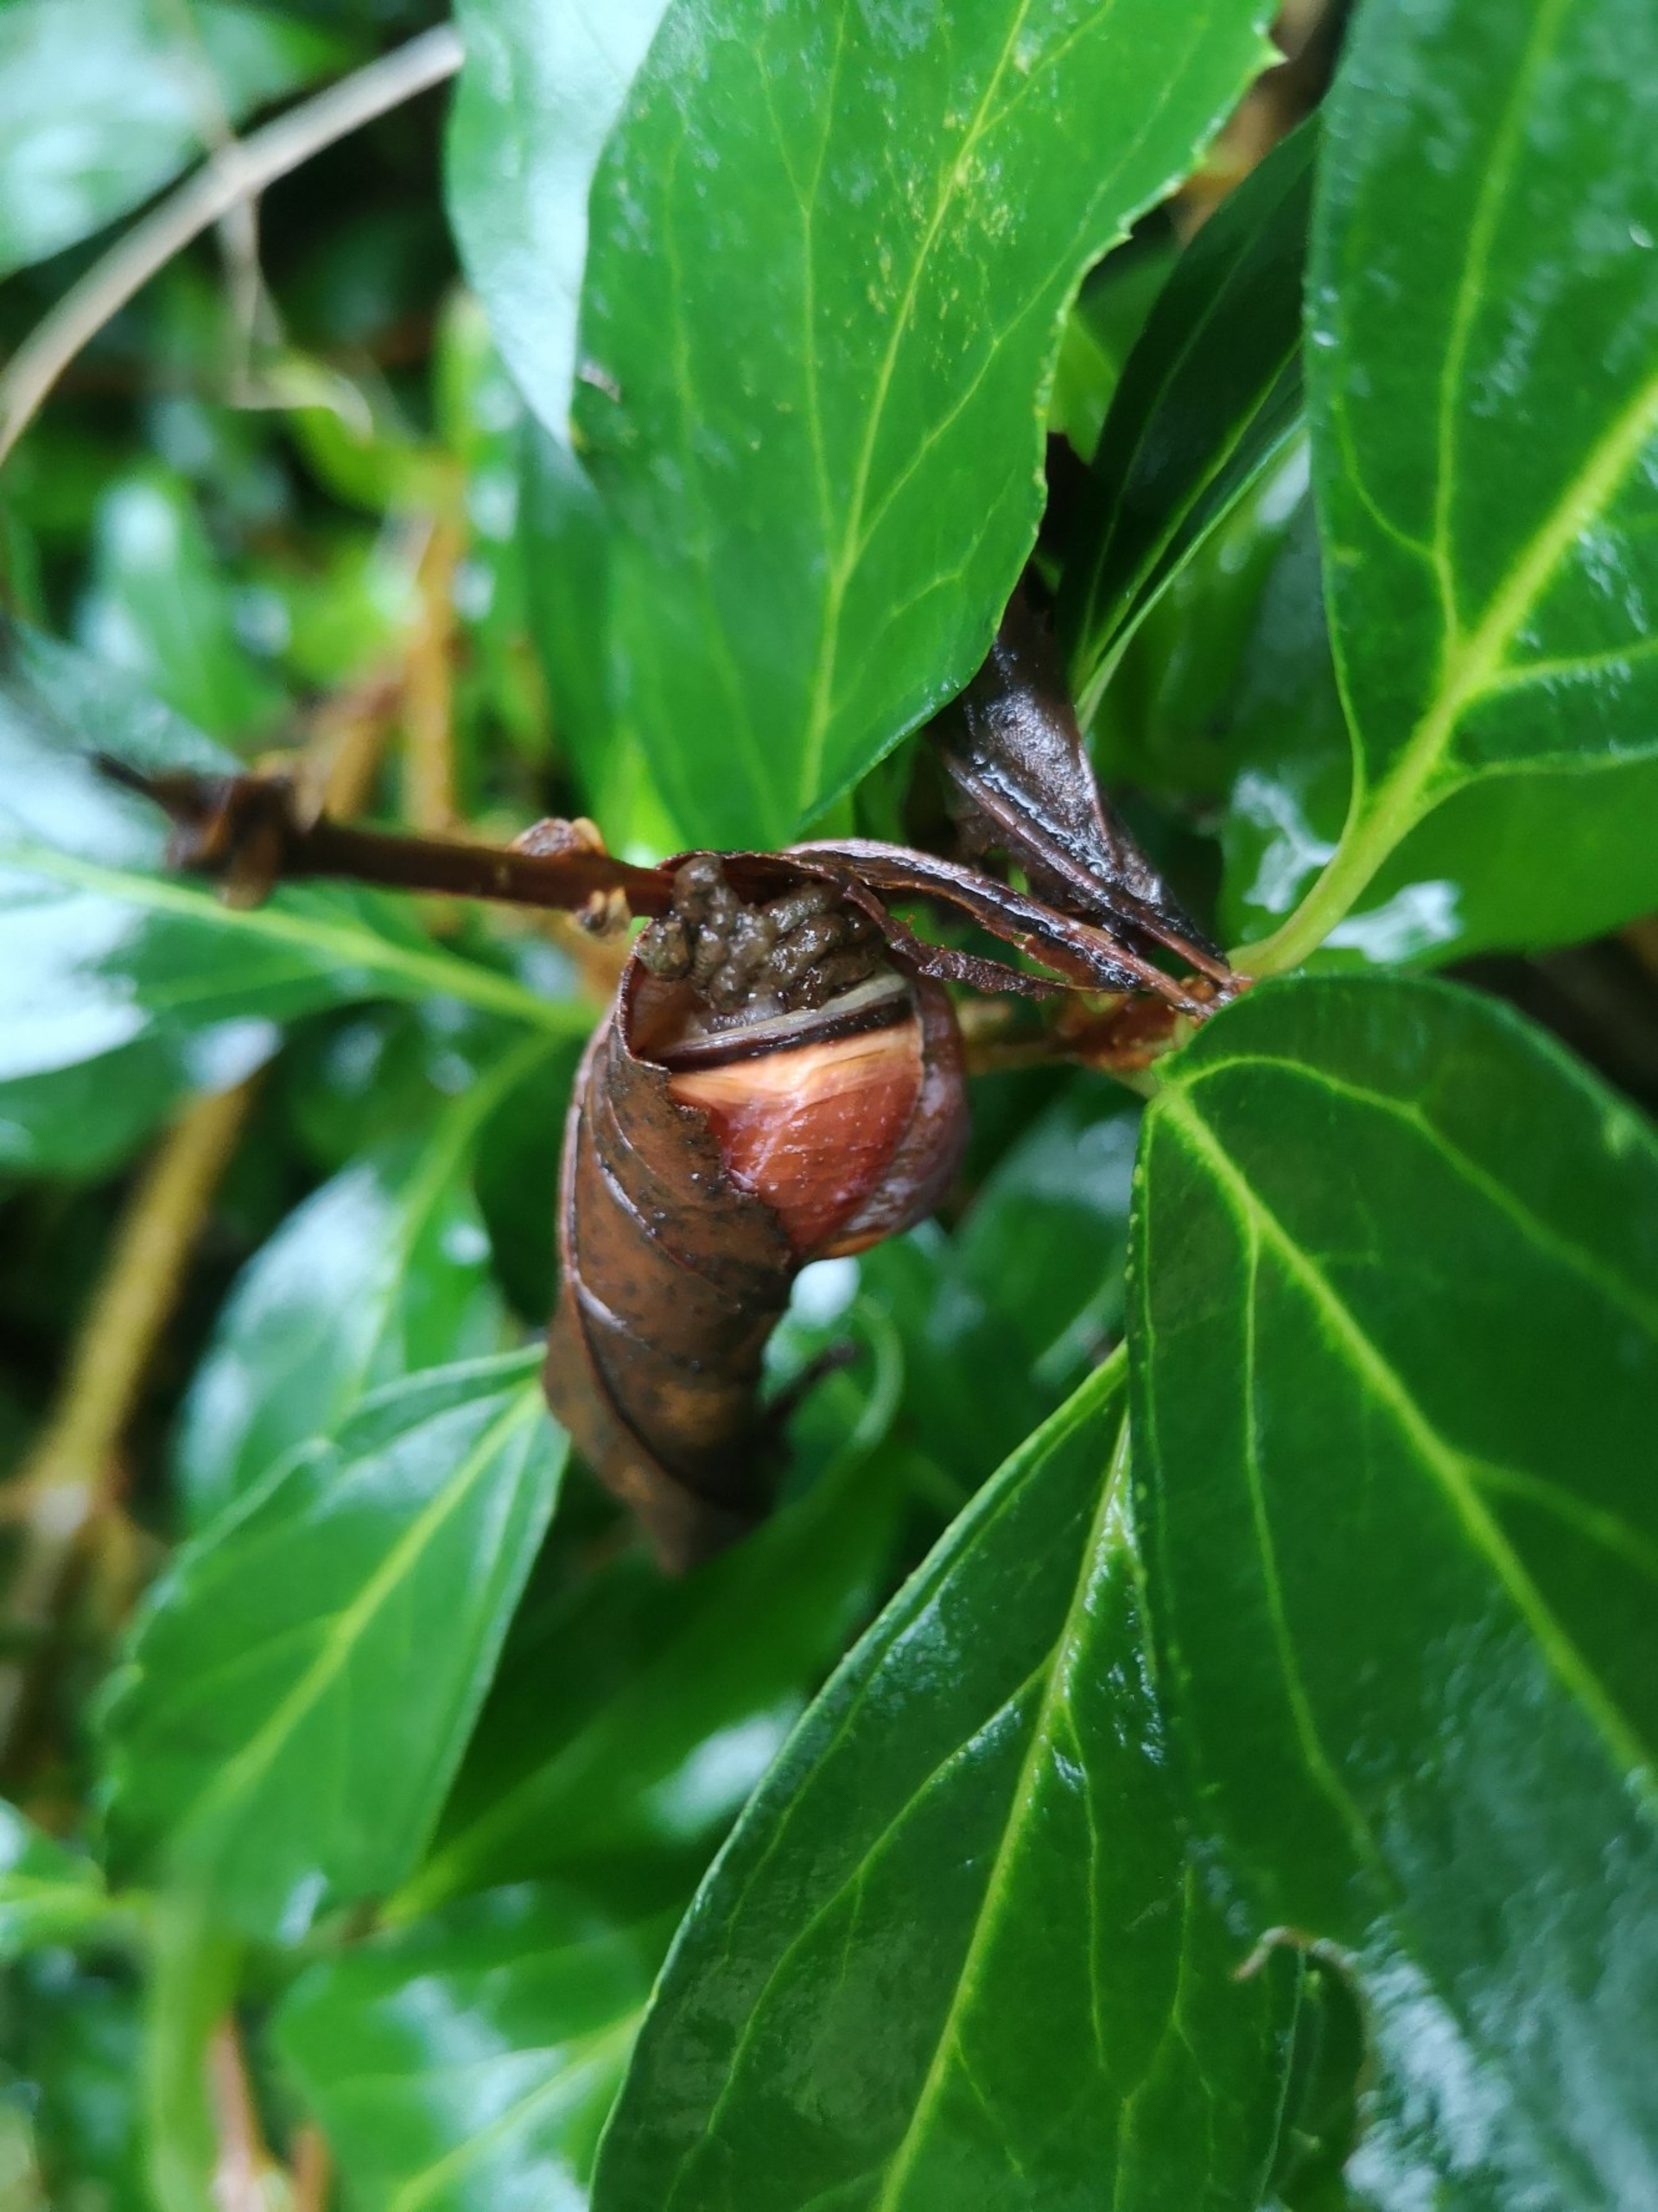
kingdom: Animalia
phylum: Mollusca
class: Gastropoda
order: Stylommatophora
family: Helicidae
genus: Cepaea
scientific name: Cepaea nemoralis
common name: Lundsnegl
